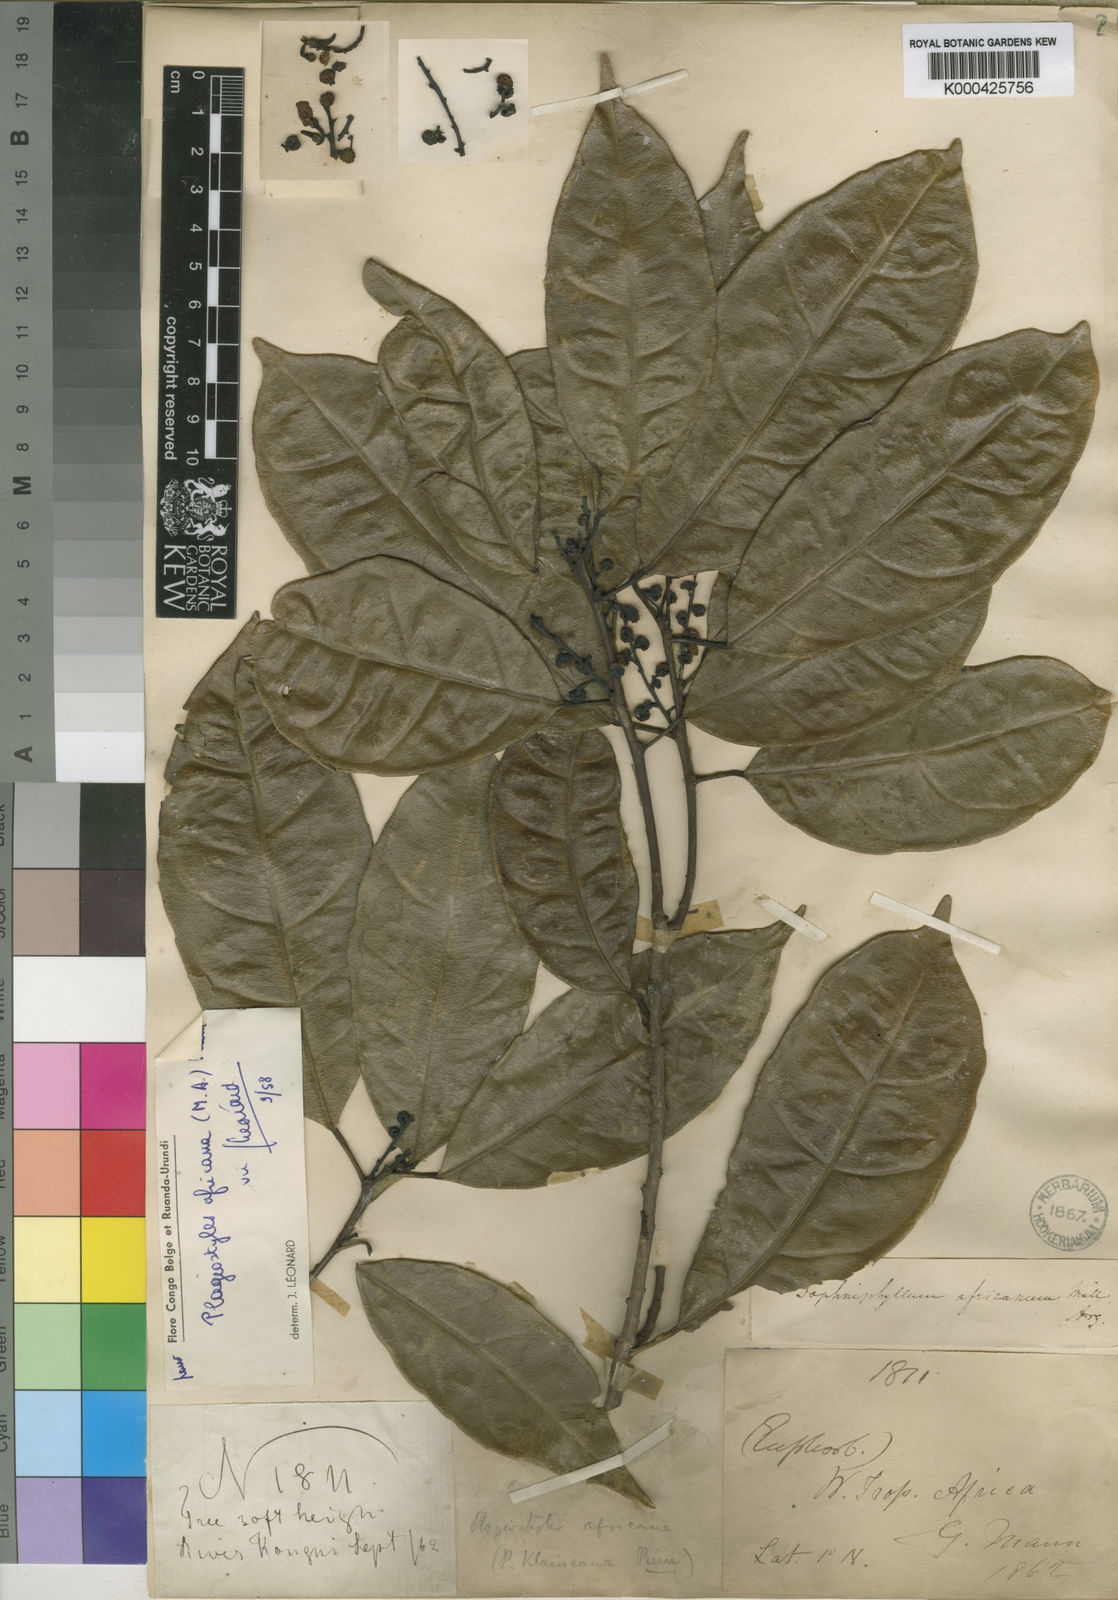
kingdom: Plantae
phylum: Tracheophyta
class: Magnoliopsida
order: Malpighiales
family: Euphorbiaceae
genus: Plagiostyles
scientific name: Plagiostyles
